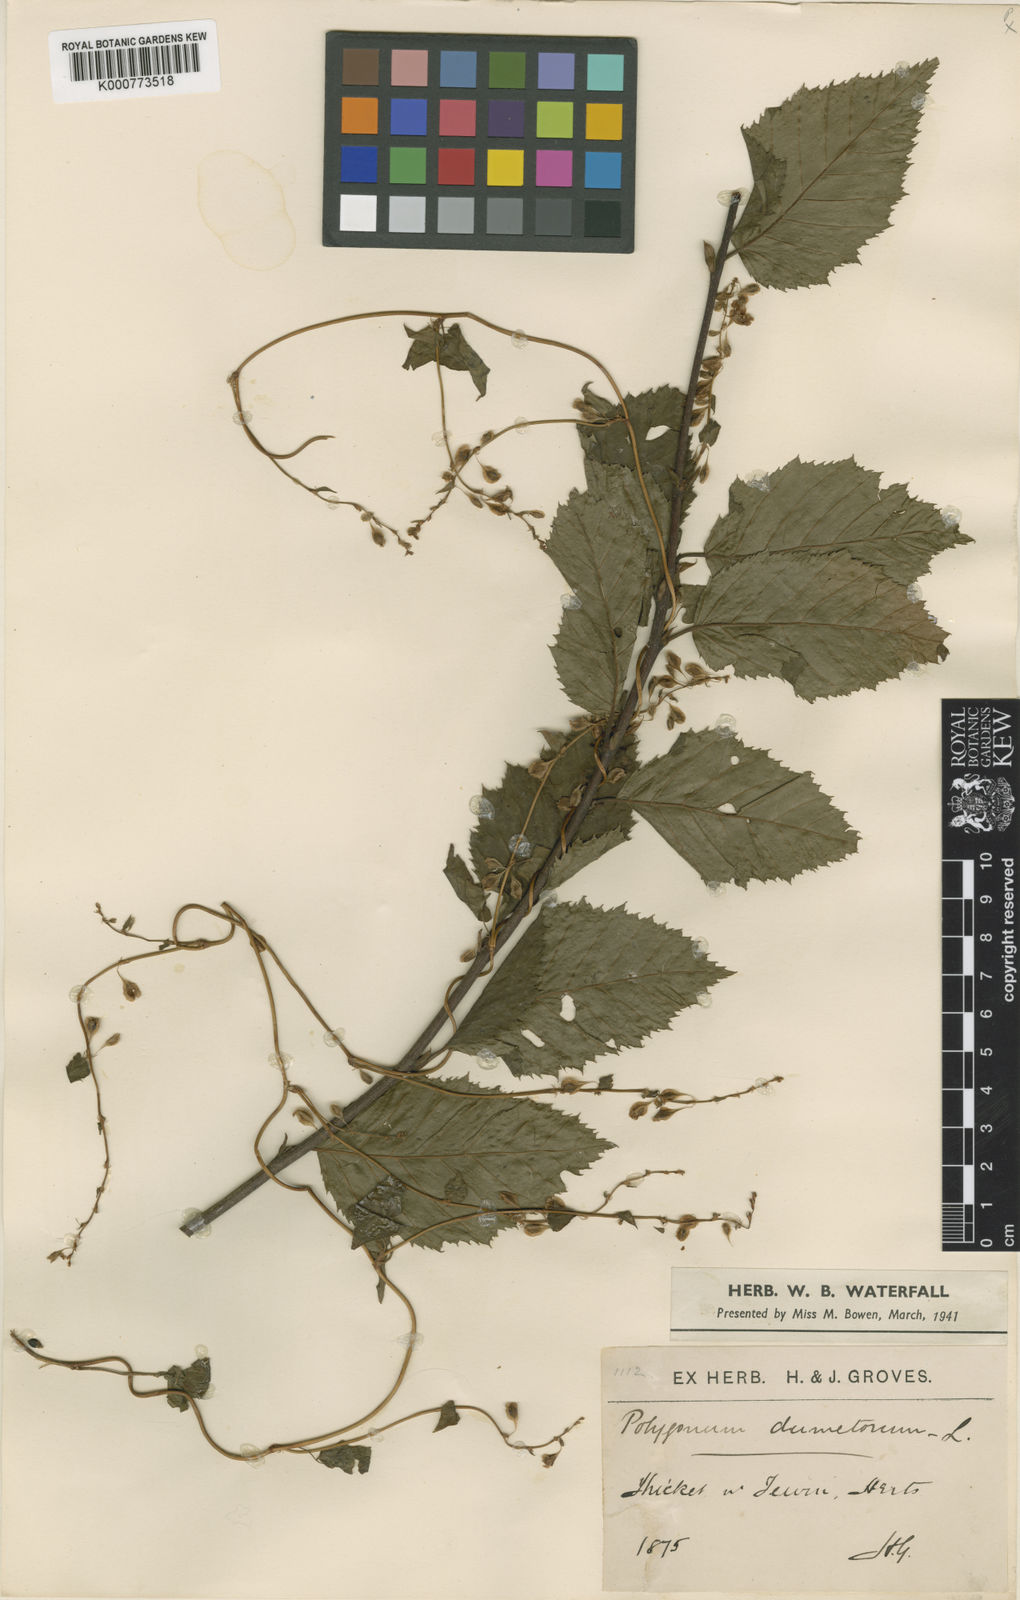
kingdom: Plantae
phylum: Tracheophyta
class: Magnoliopsida
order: Caryophyllales
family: Polygonaceae
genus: Fallopia
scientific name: Fallopia dumetorum
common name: Copse-bindweed
